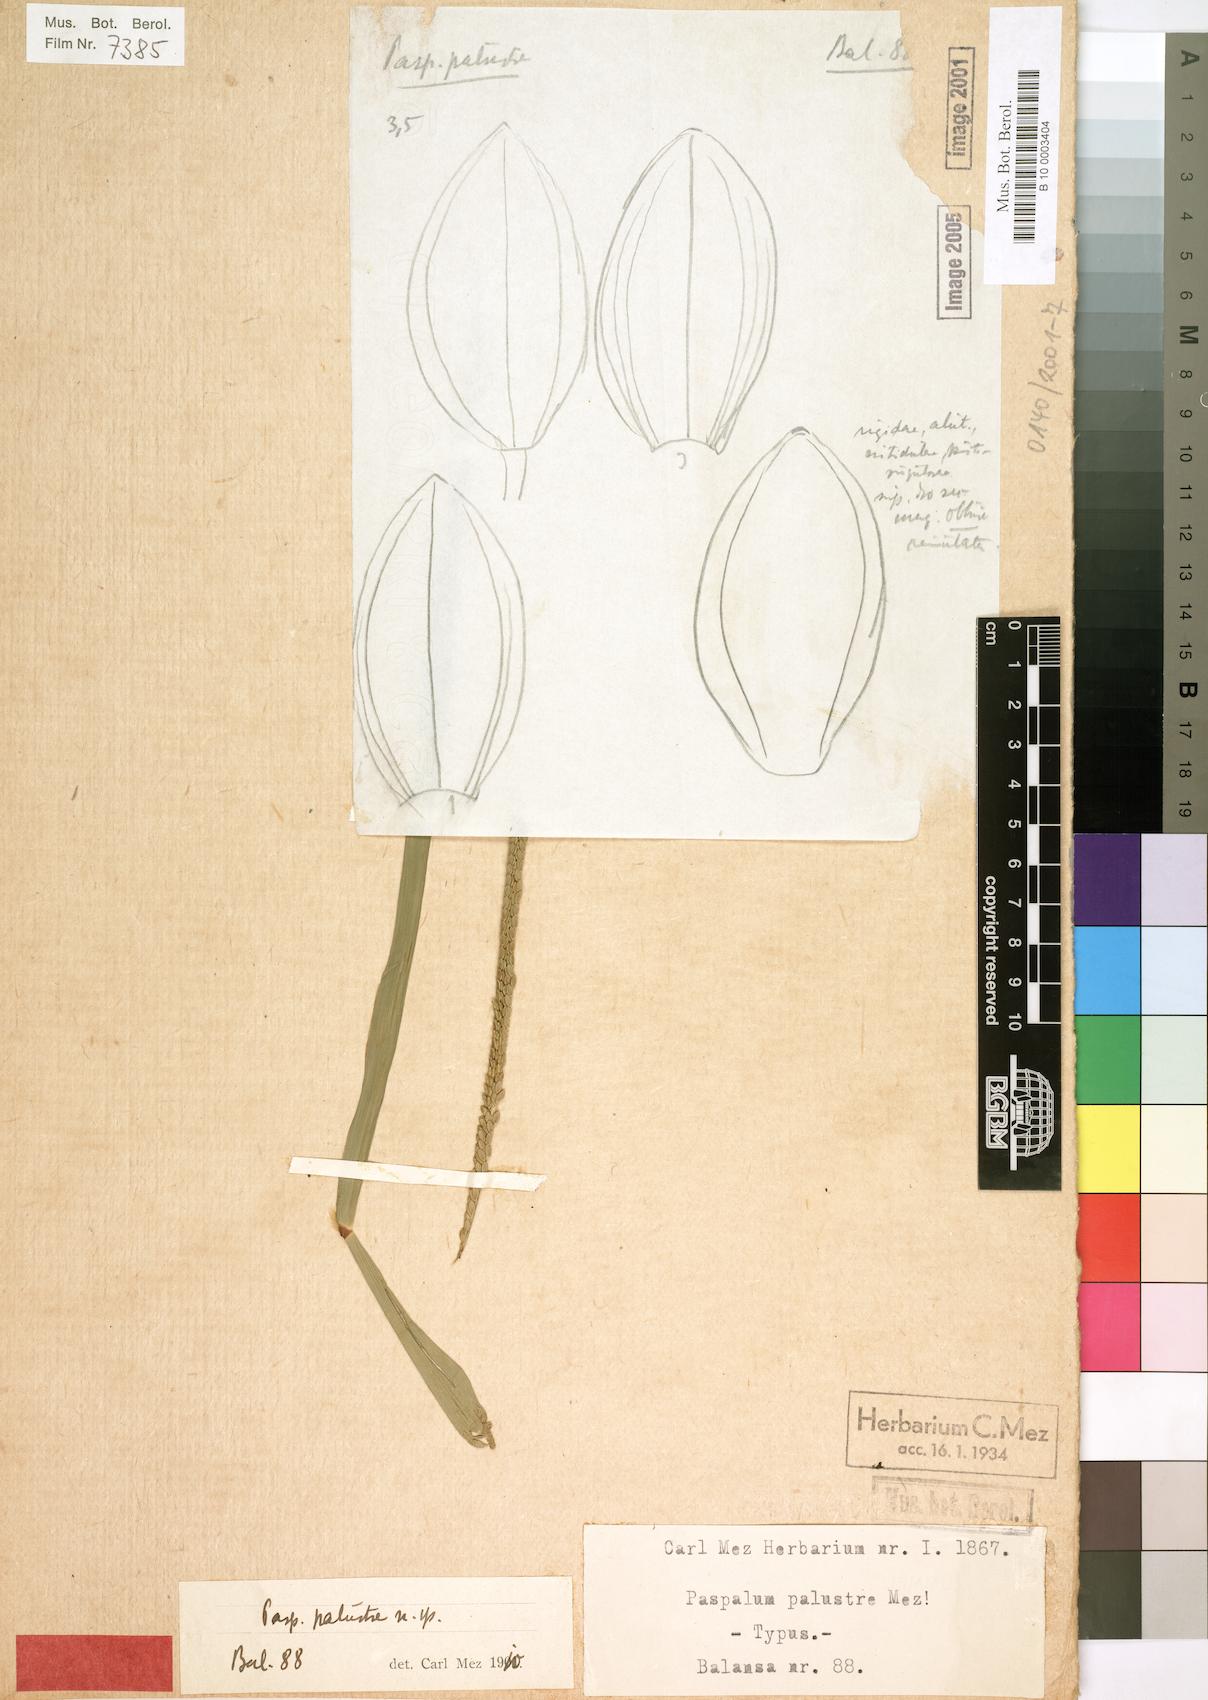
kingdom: Plantae
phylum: Tracheophyta
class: Liliopsida
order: Poales
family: Poaceae
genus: Paspalum
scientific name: Paspalum palustre
